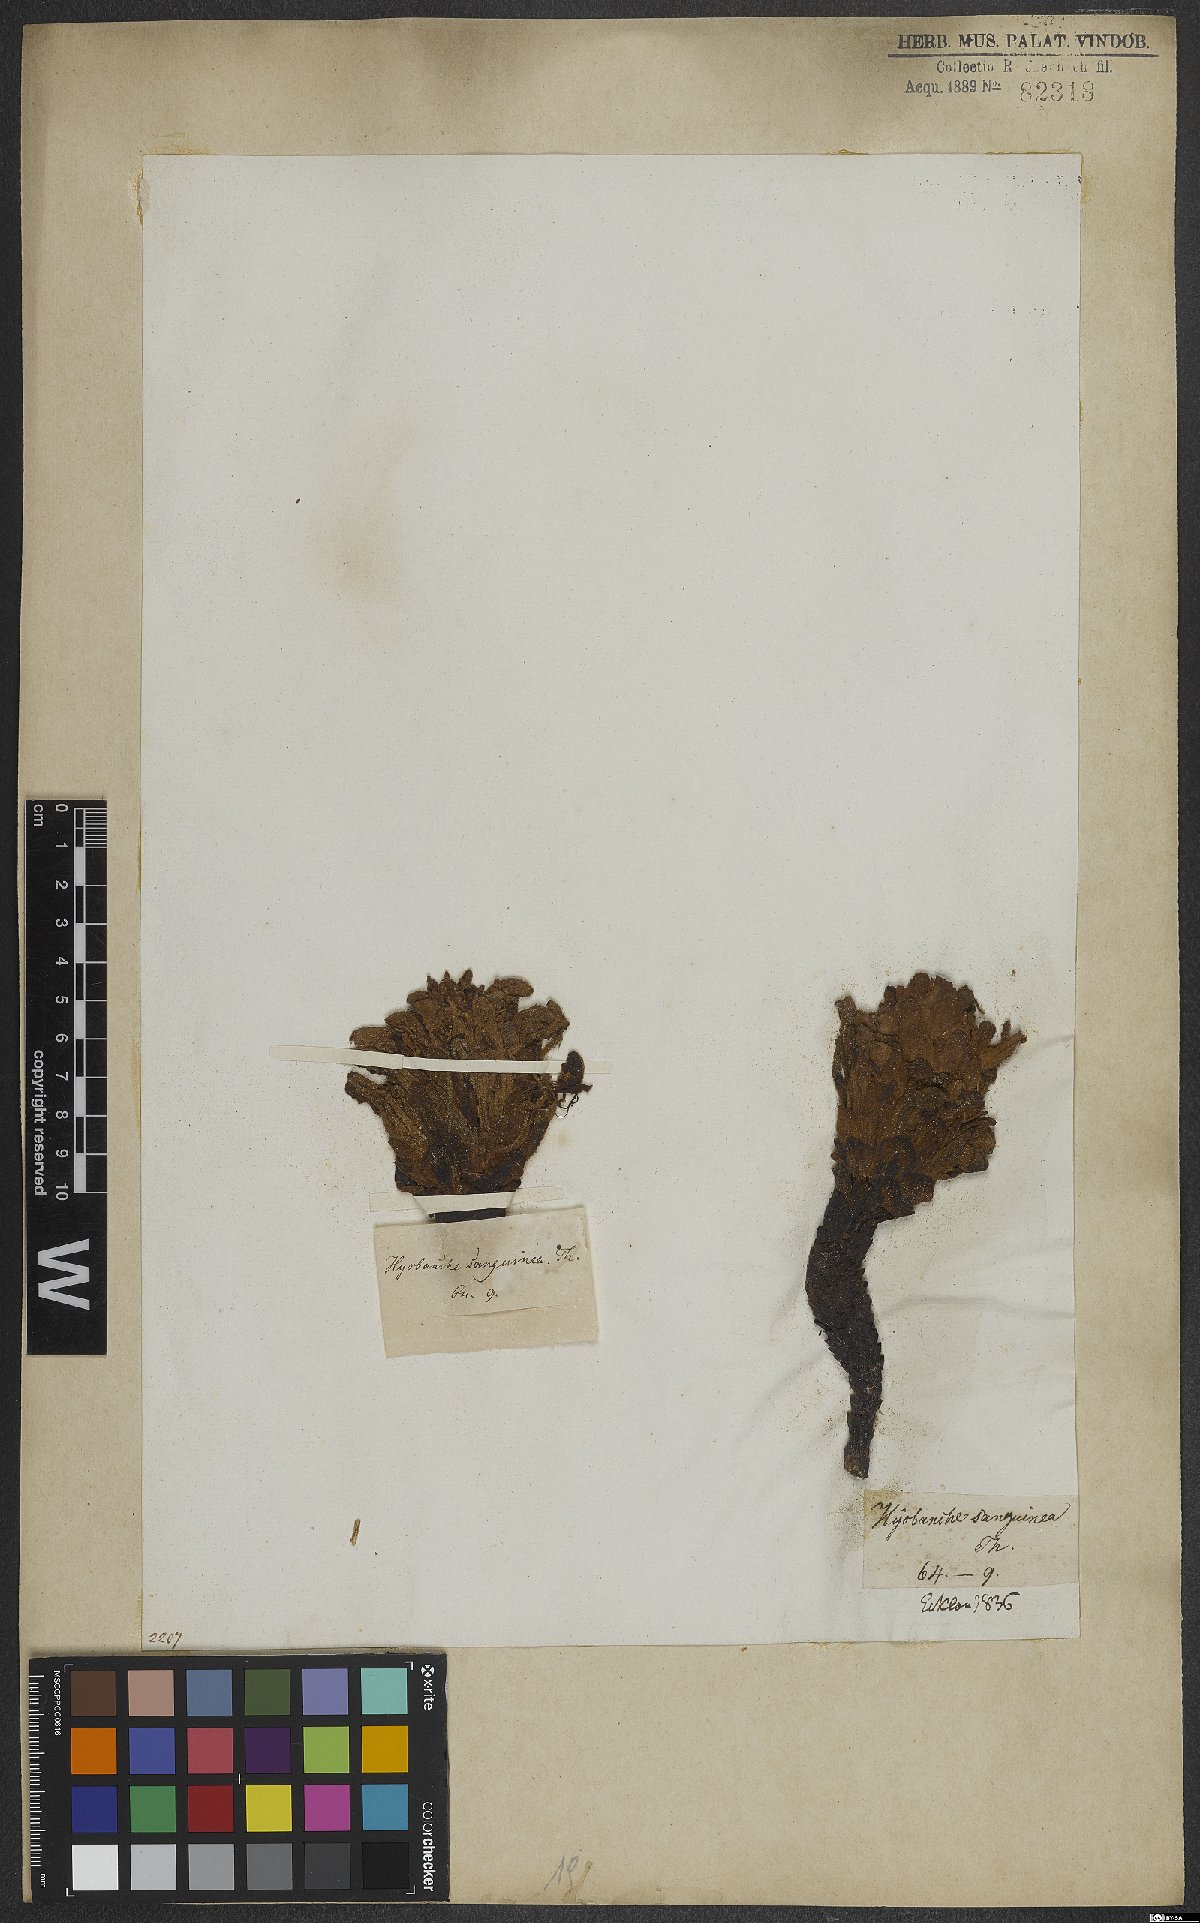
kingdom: Plantae
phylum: Tracheophyta
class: Magnoliopsida
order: Lamiales
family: Orobanchaceae
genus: Hyobanche
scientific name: Hyobanche sanguinea
